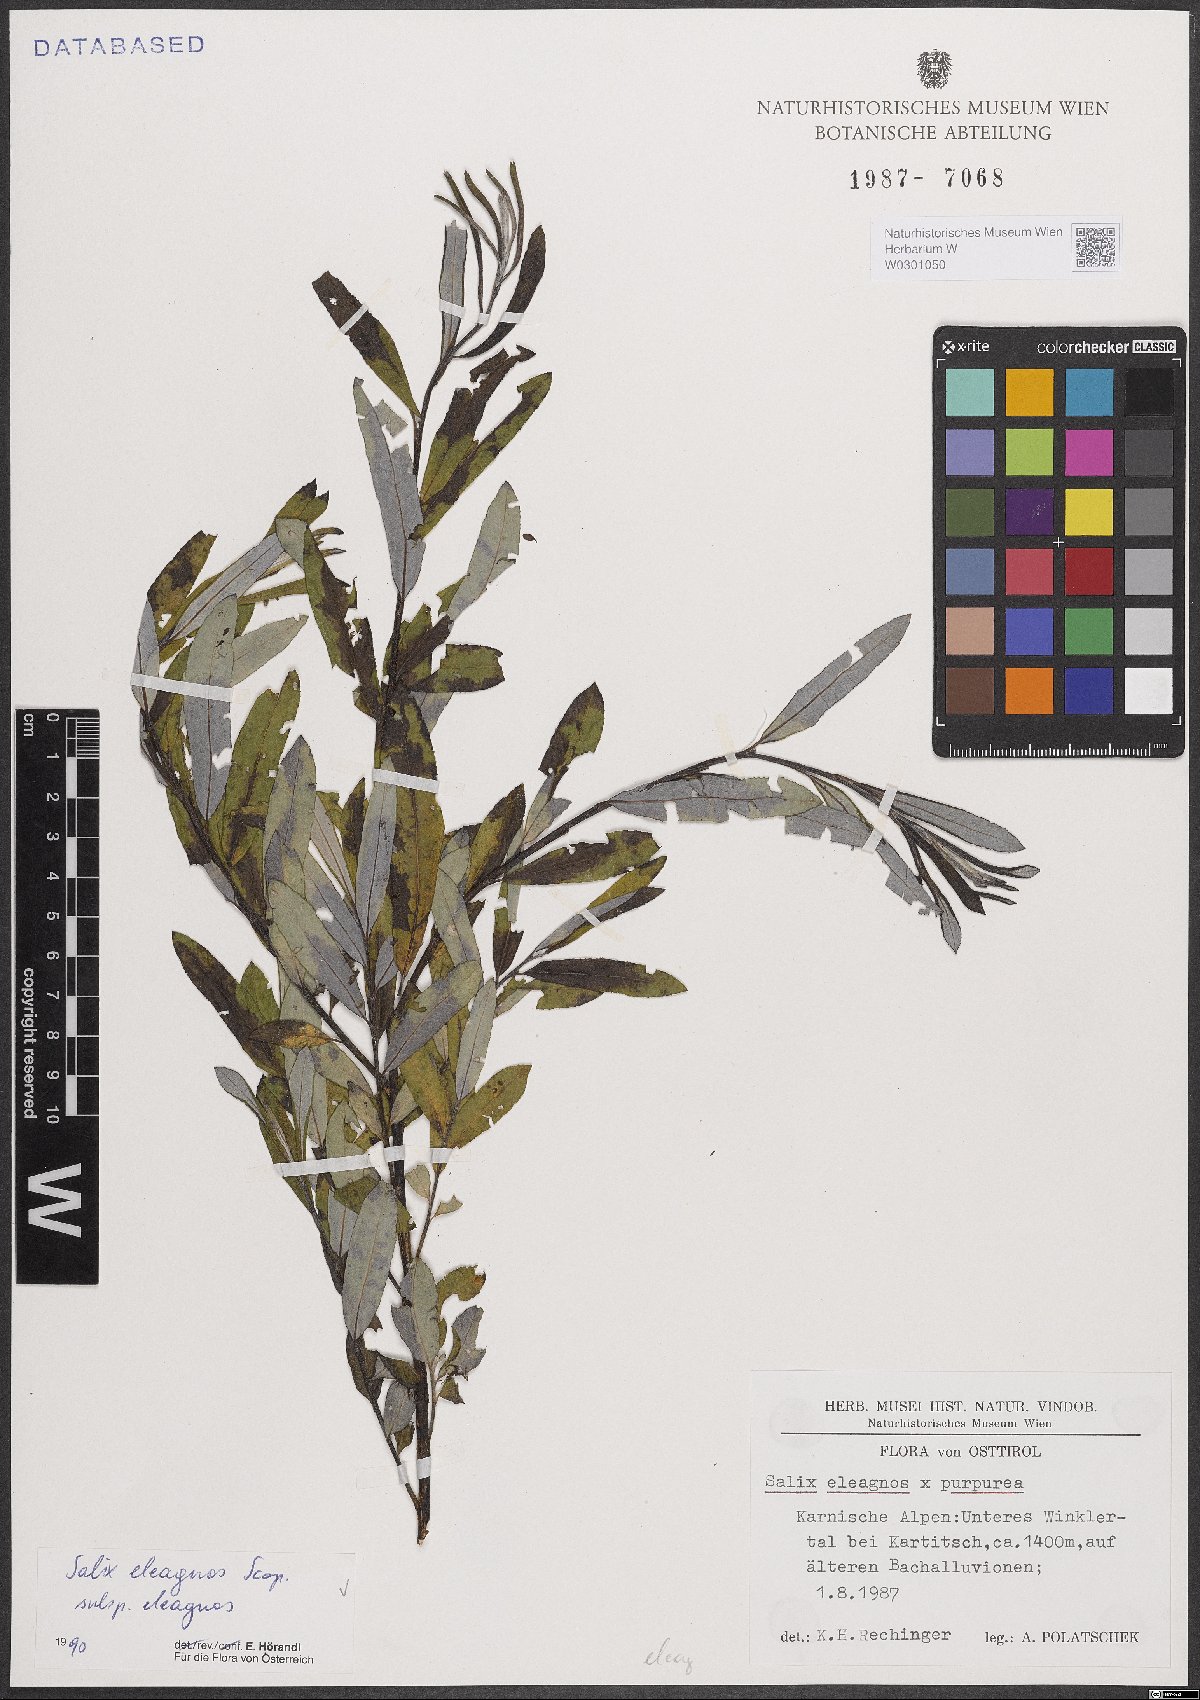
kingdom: Plantae
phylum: Tracheophyta
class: Magnoliopsida
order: Malpighiales
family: Salicaceae
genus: Salix
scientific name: Salix eleagnos
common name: Elaeagnus willow
